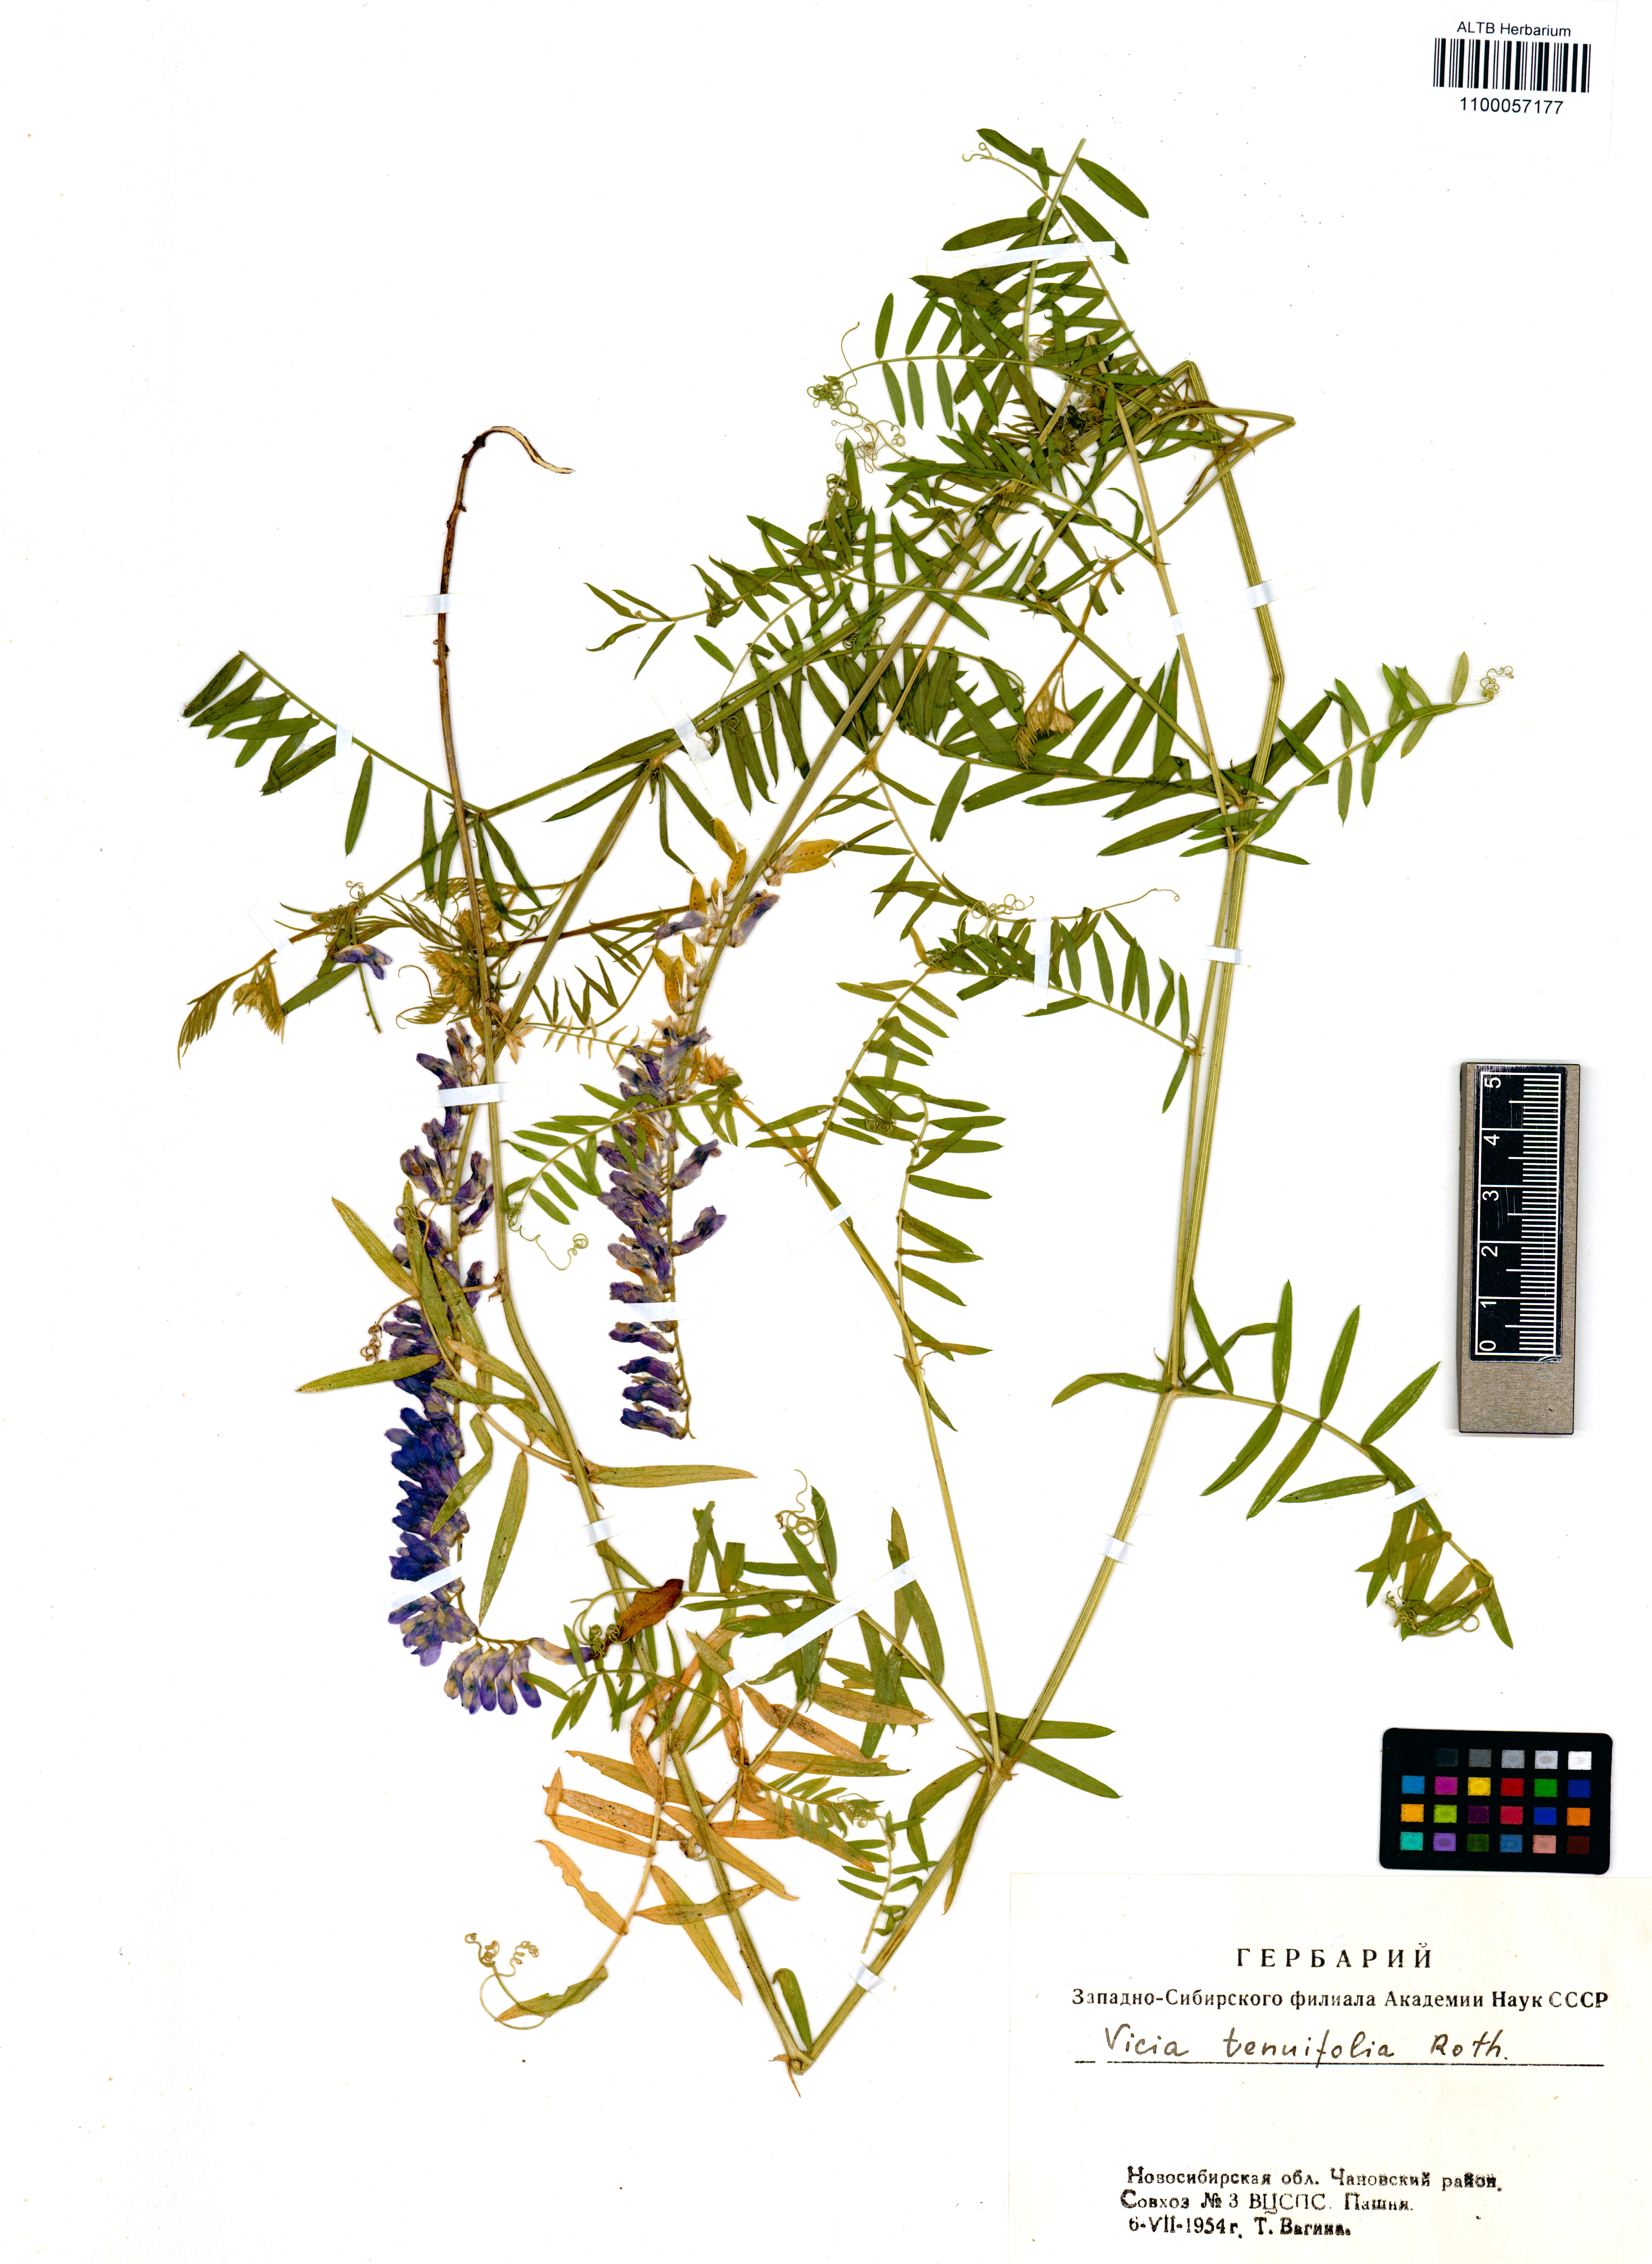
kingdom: Plantae
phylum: Tracheophyta
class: Magnoliopsida
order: Fabales
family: Fabaceae
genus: Vicia
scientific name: Vicia tenuifolia
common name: Fine-leaved vetch
